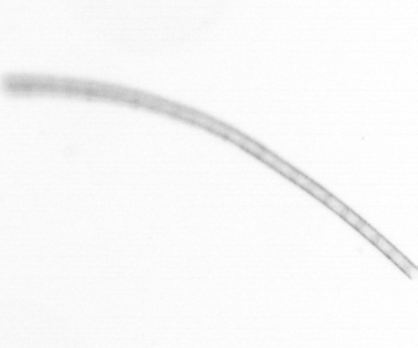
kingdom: Chromista
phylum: Ochrophyta
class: Bacillariophyceae
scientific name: Bacillariophyceae
